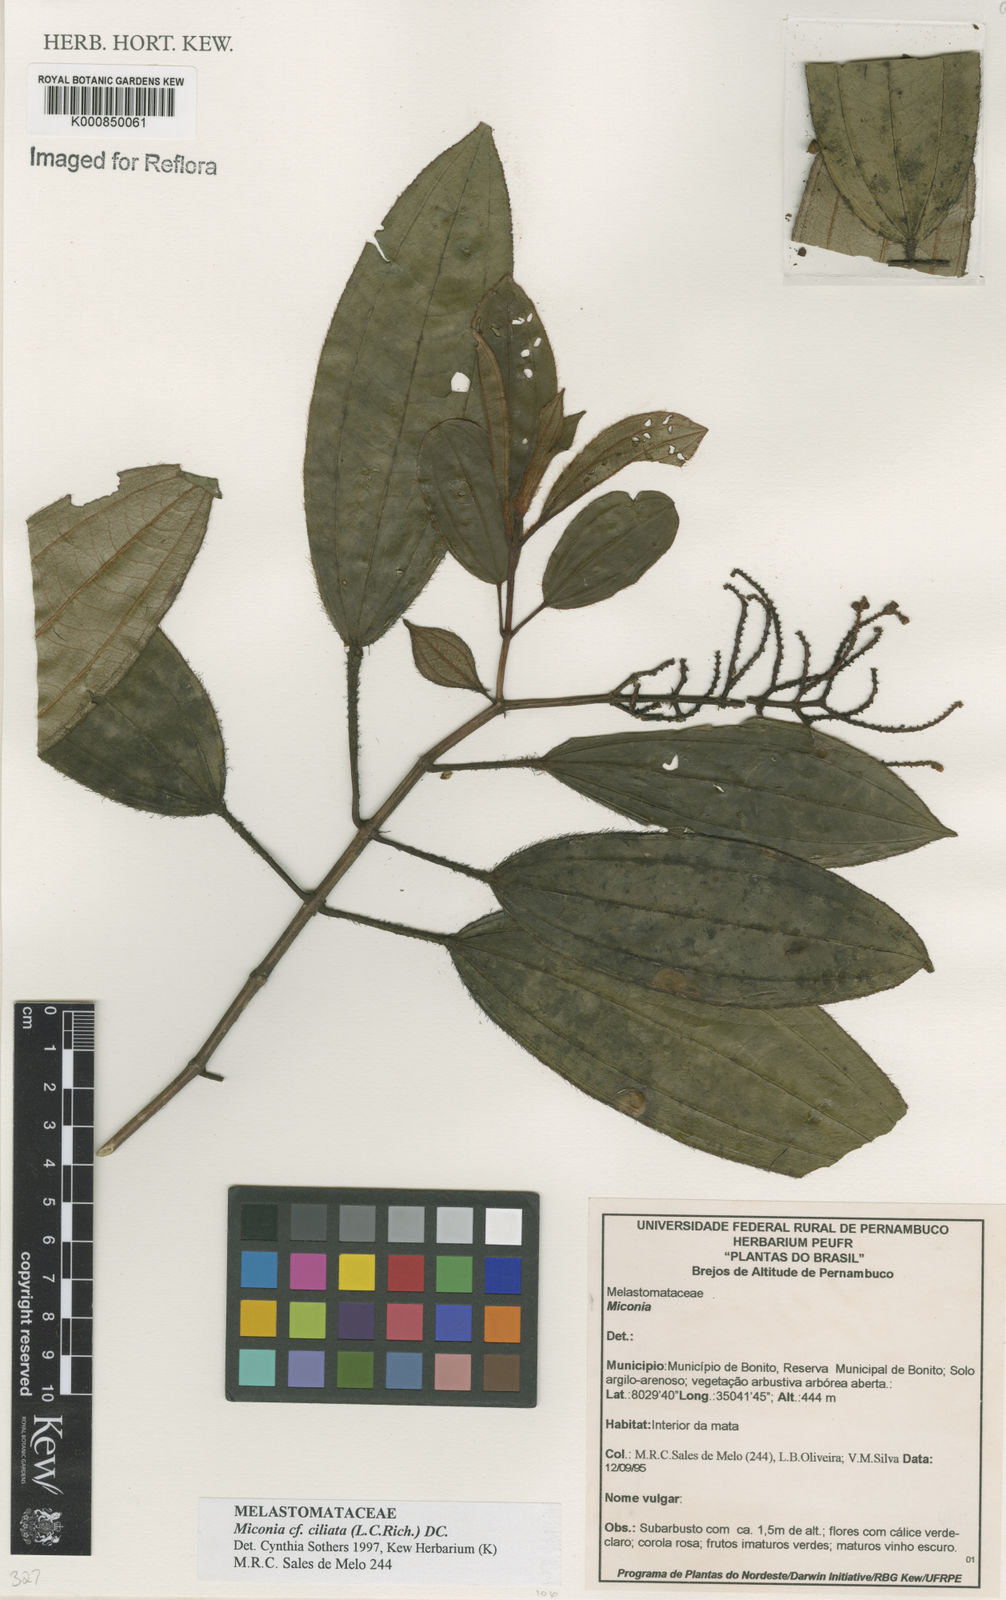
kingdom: Plantae
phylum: Tracheophyta
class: Magnoliopsida
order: Myrtales
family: Melastomataceae
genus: Miconia
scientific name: Miconia ciliata
